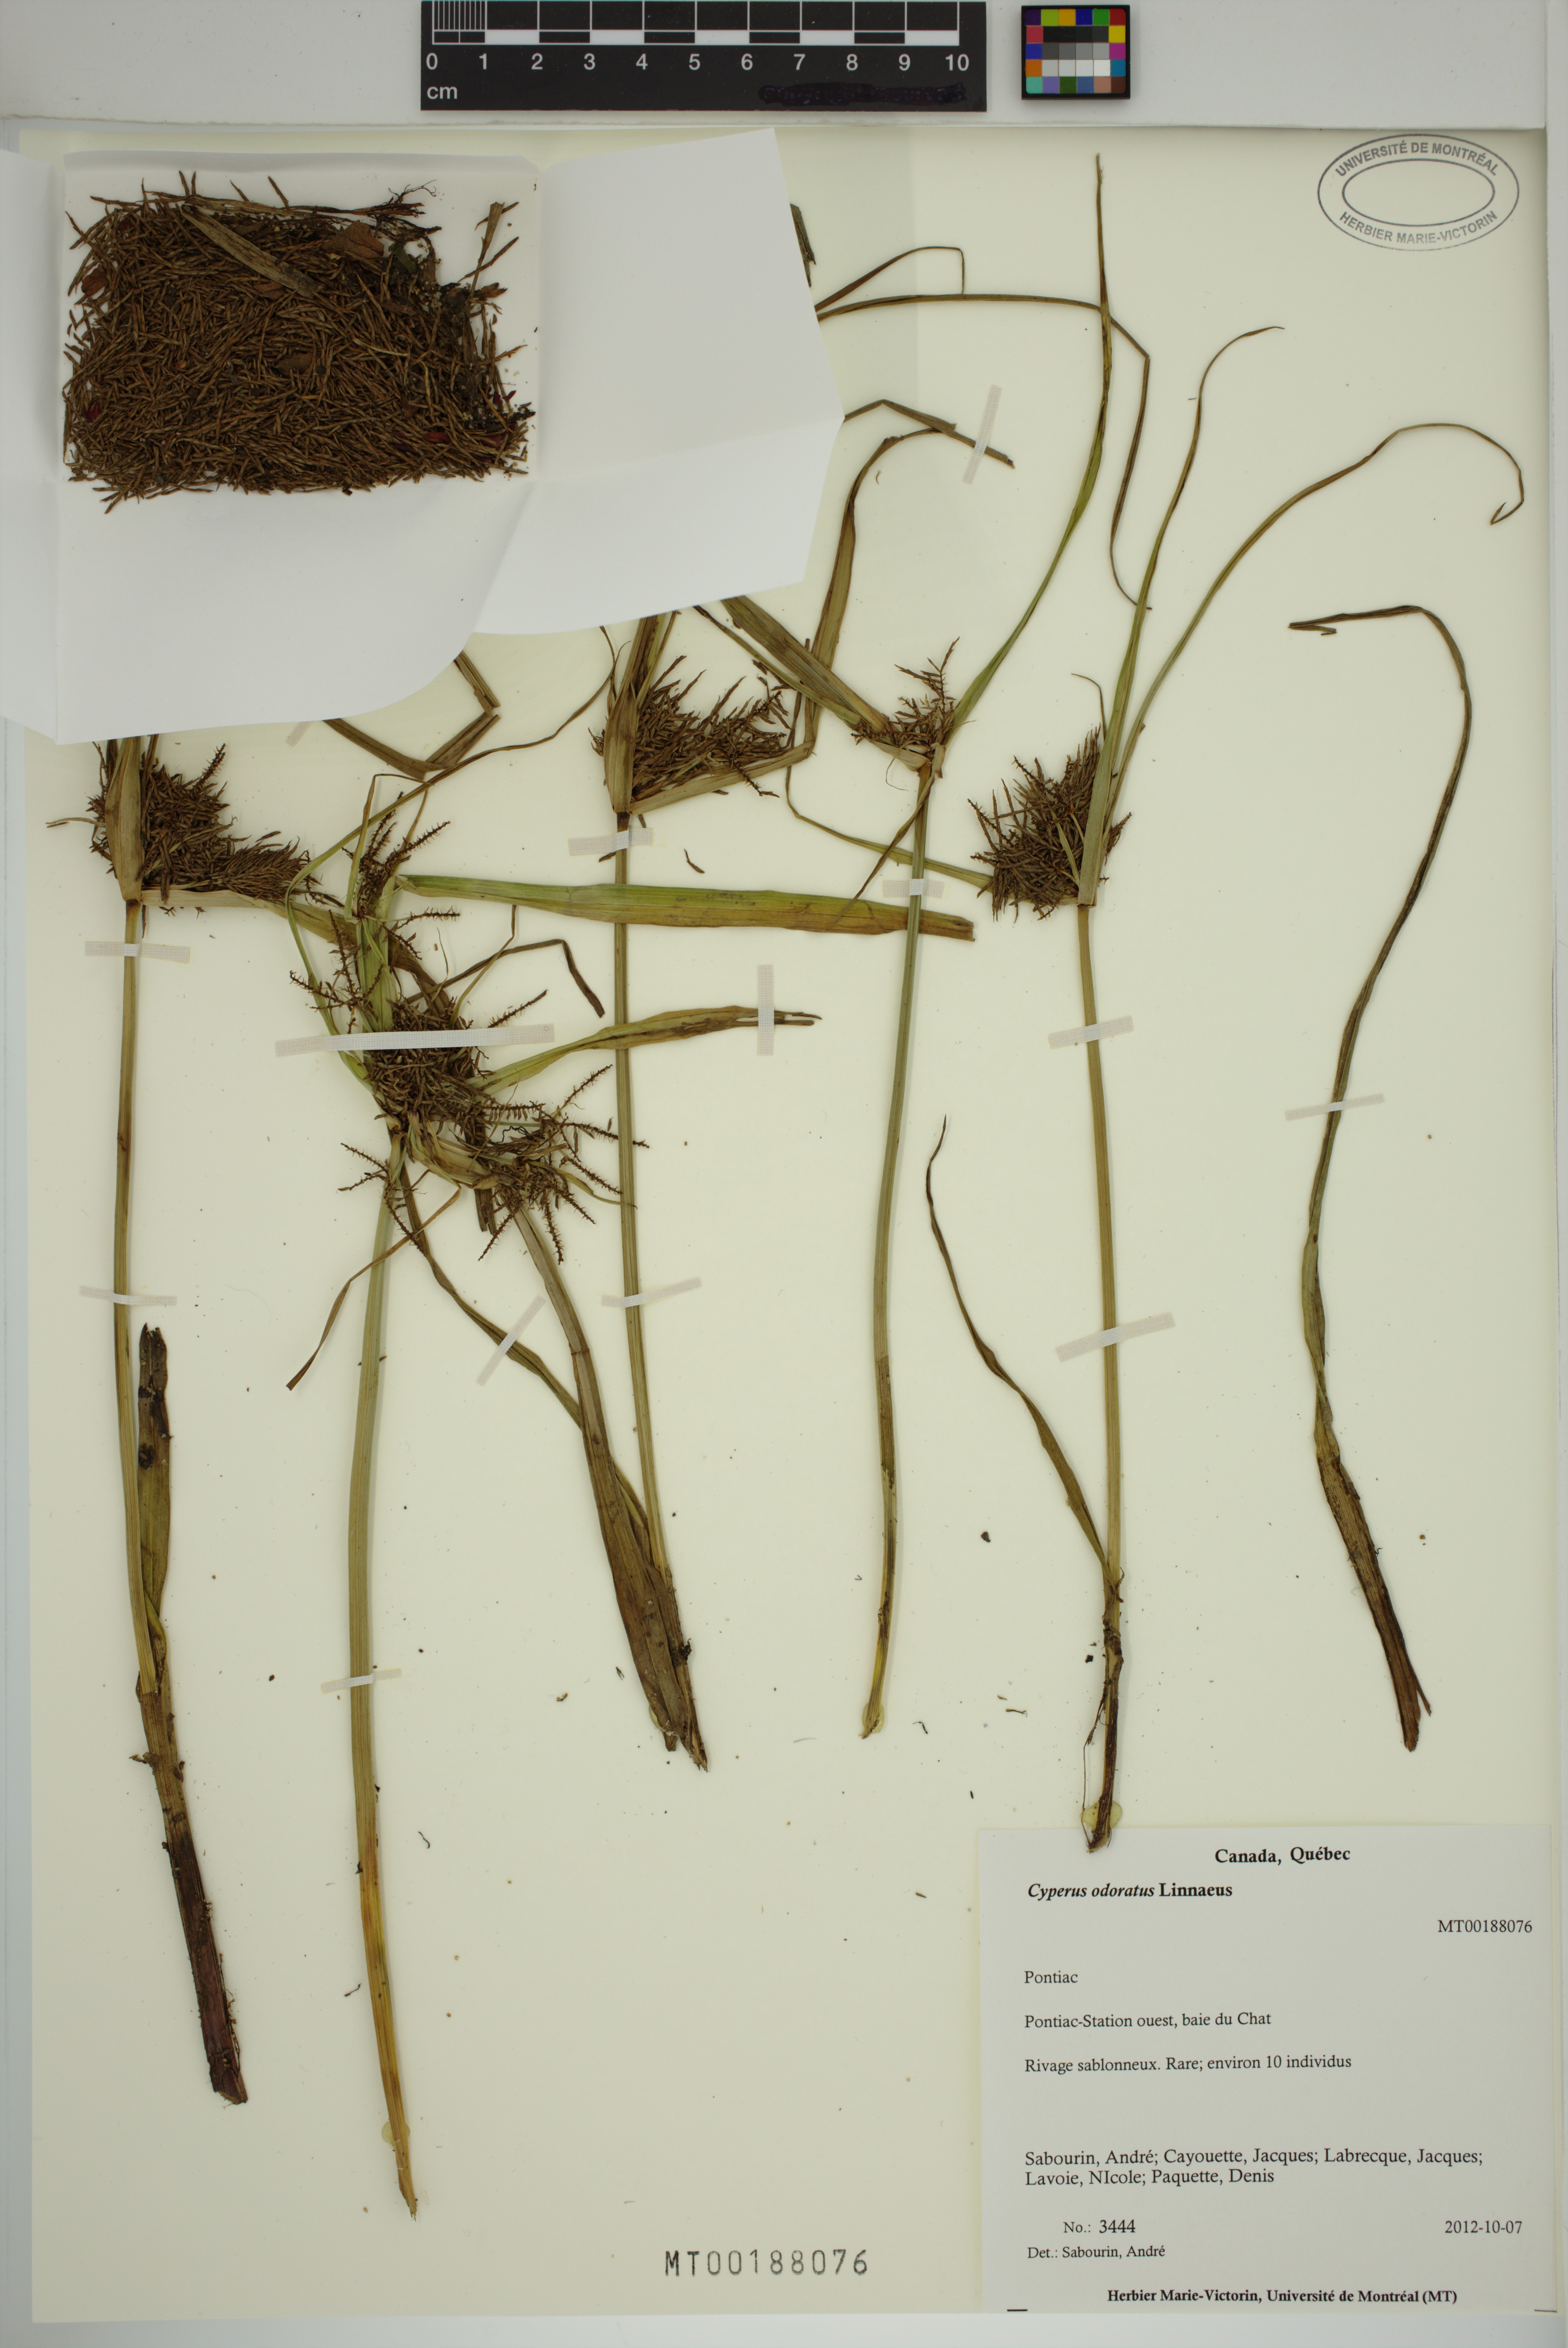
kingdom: Plantae
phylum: Tracheophyta
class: Liliopsida
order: Poales
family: Cyperaceae
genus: Cyperus
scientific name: Cyperus odoratus
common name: Fragrant flatsedge
